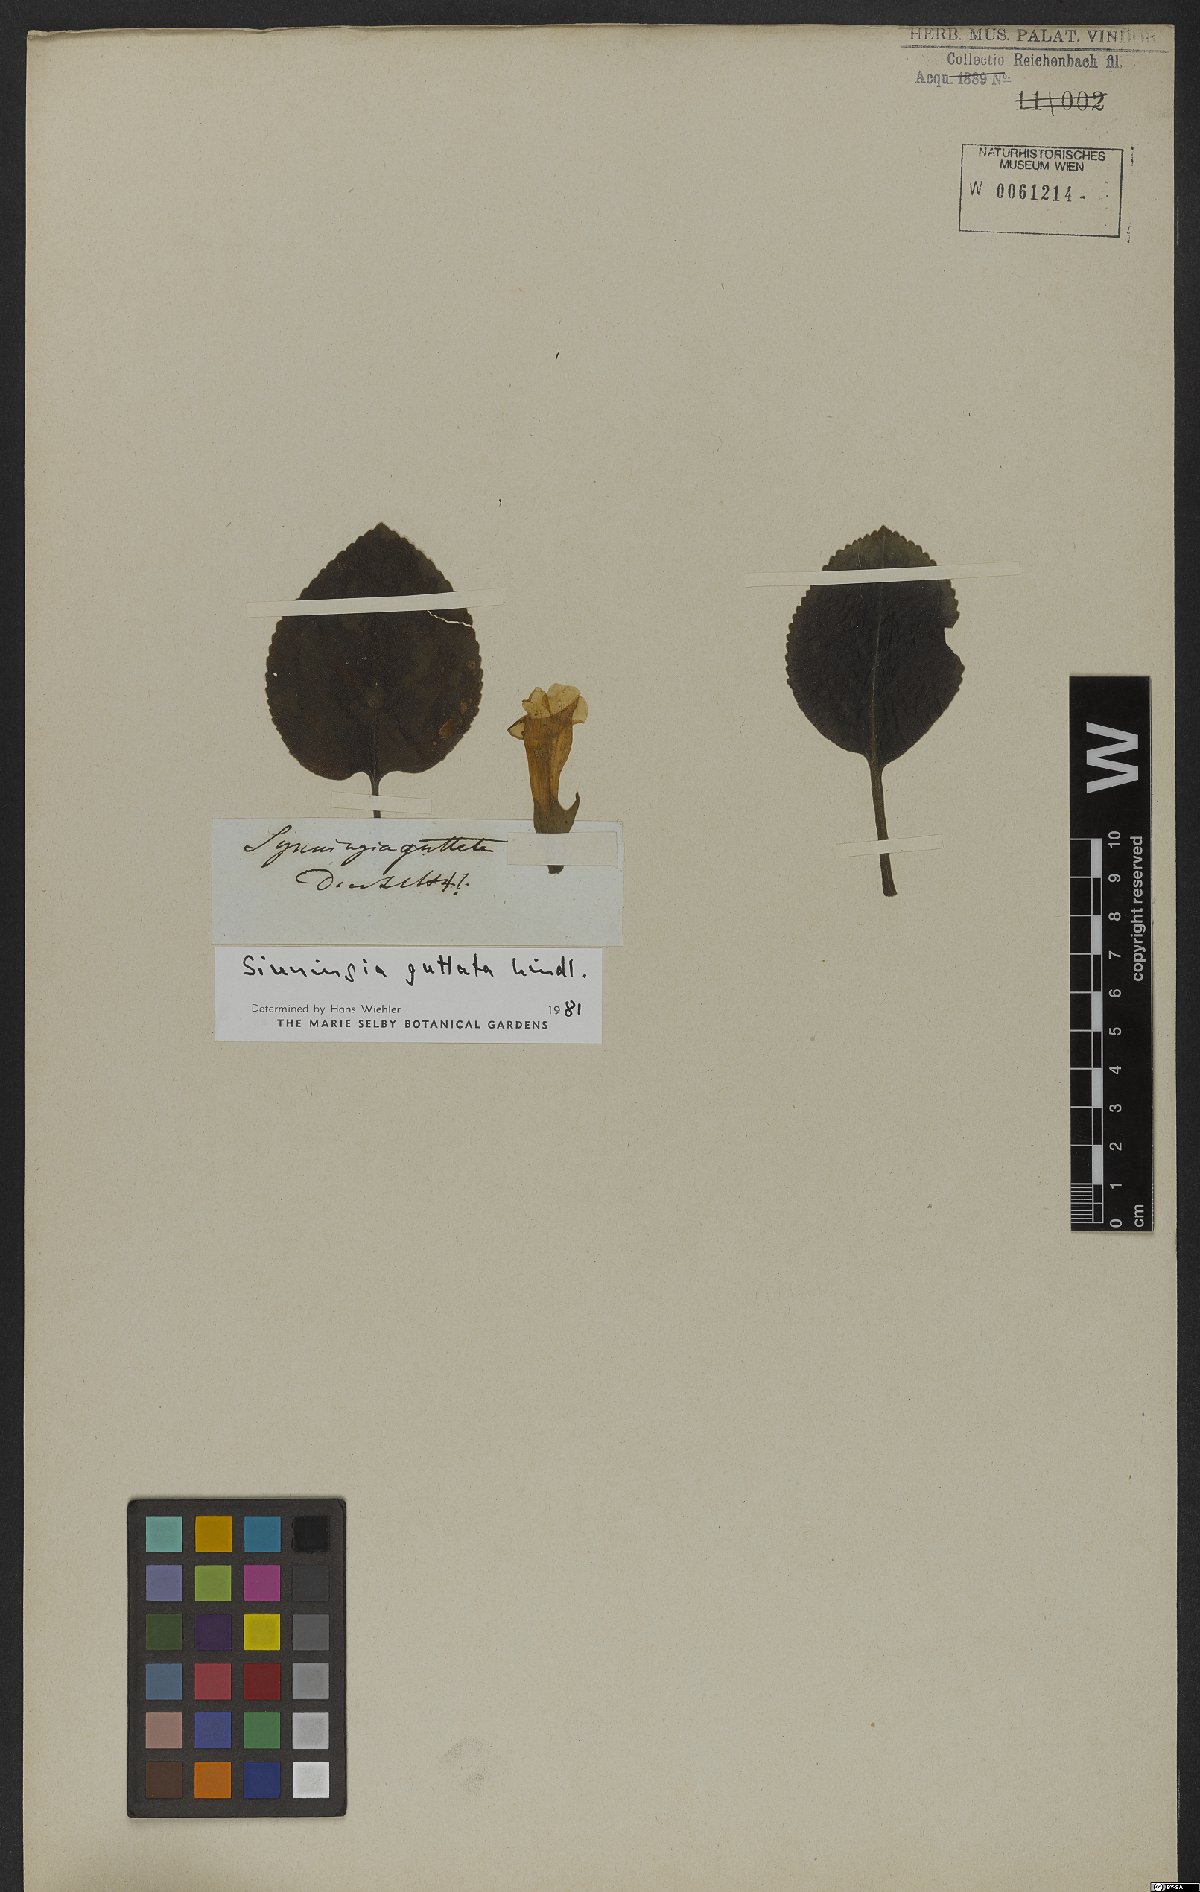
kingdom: Plantae
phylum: Tracheophyta
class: Magnoliopsida
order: Lamiales
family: Gesneriaceae
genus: Sinningia
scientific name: Sinningia guttata
